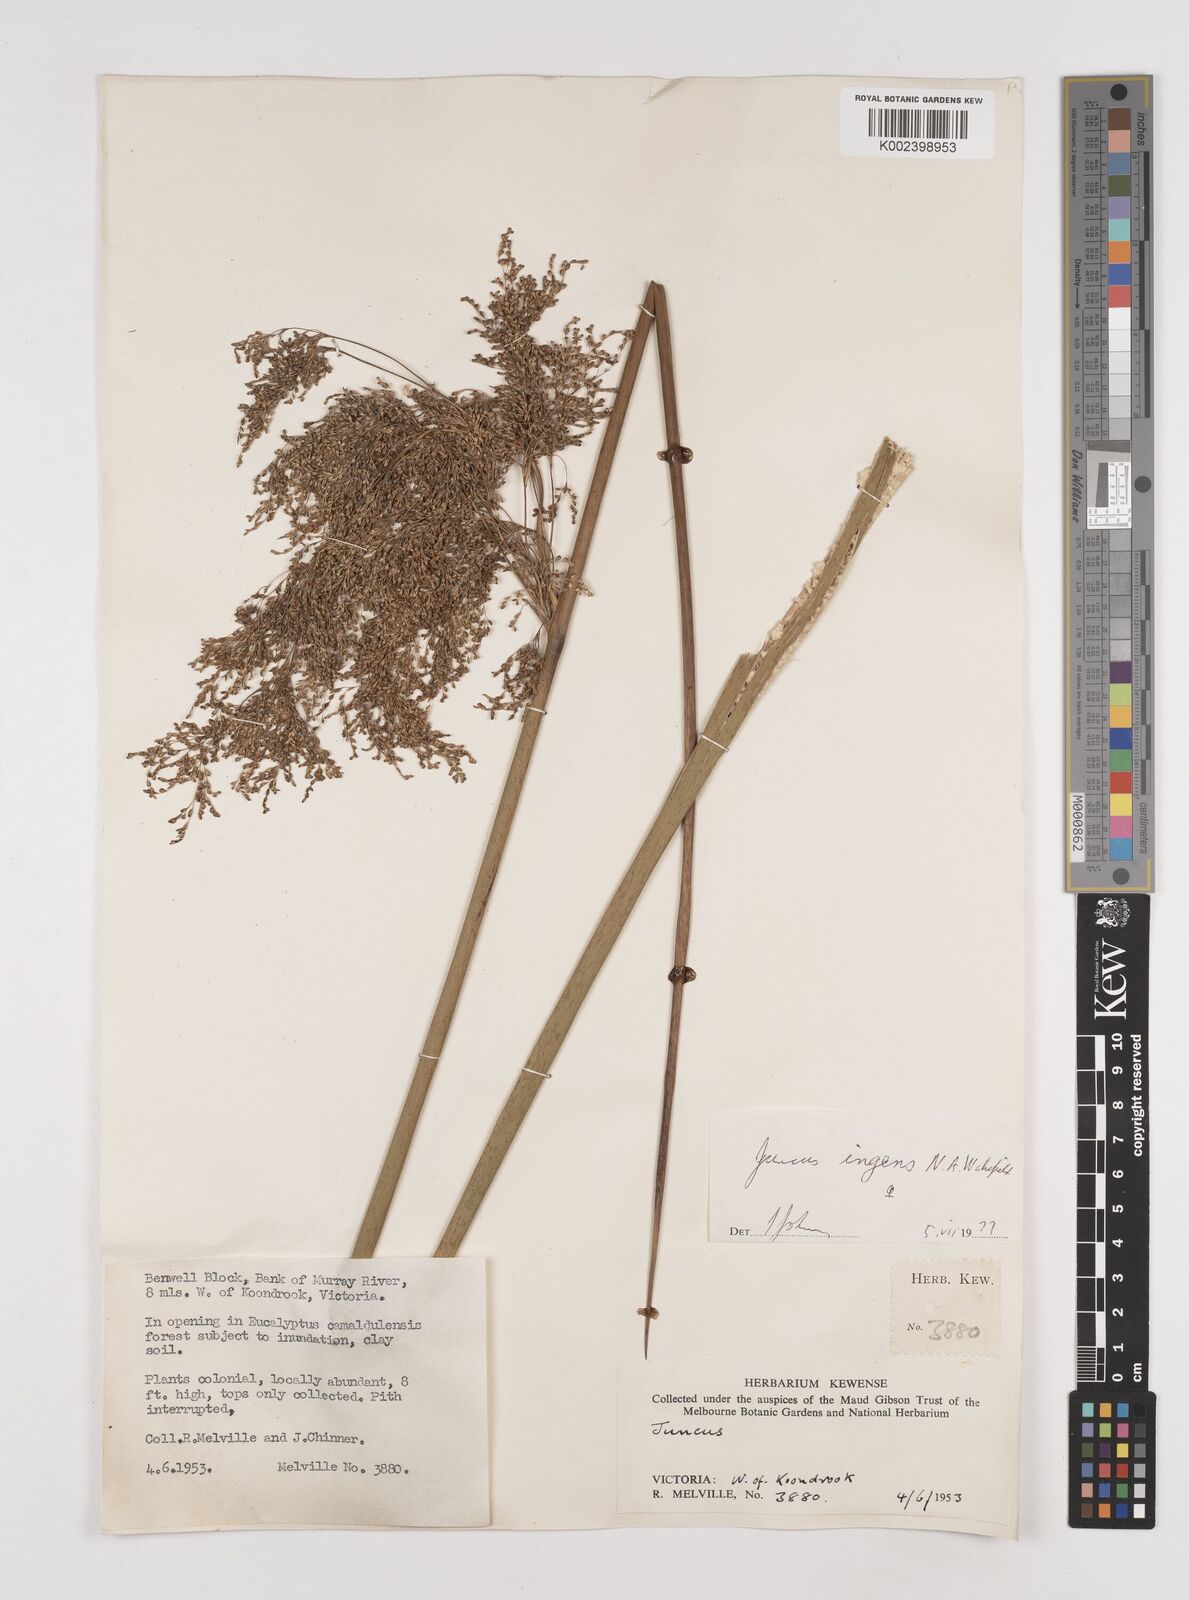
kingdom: Plantae
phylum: Tracheophyta
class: Liliopsida
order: Poales
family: Juncaceae
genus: Juncus
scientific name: Juncus ingens
